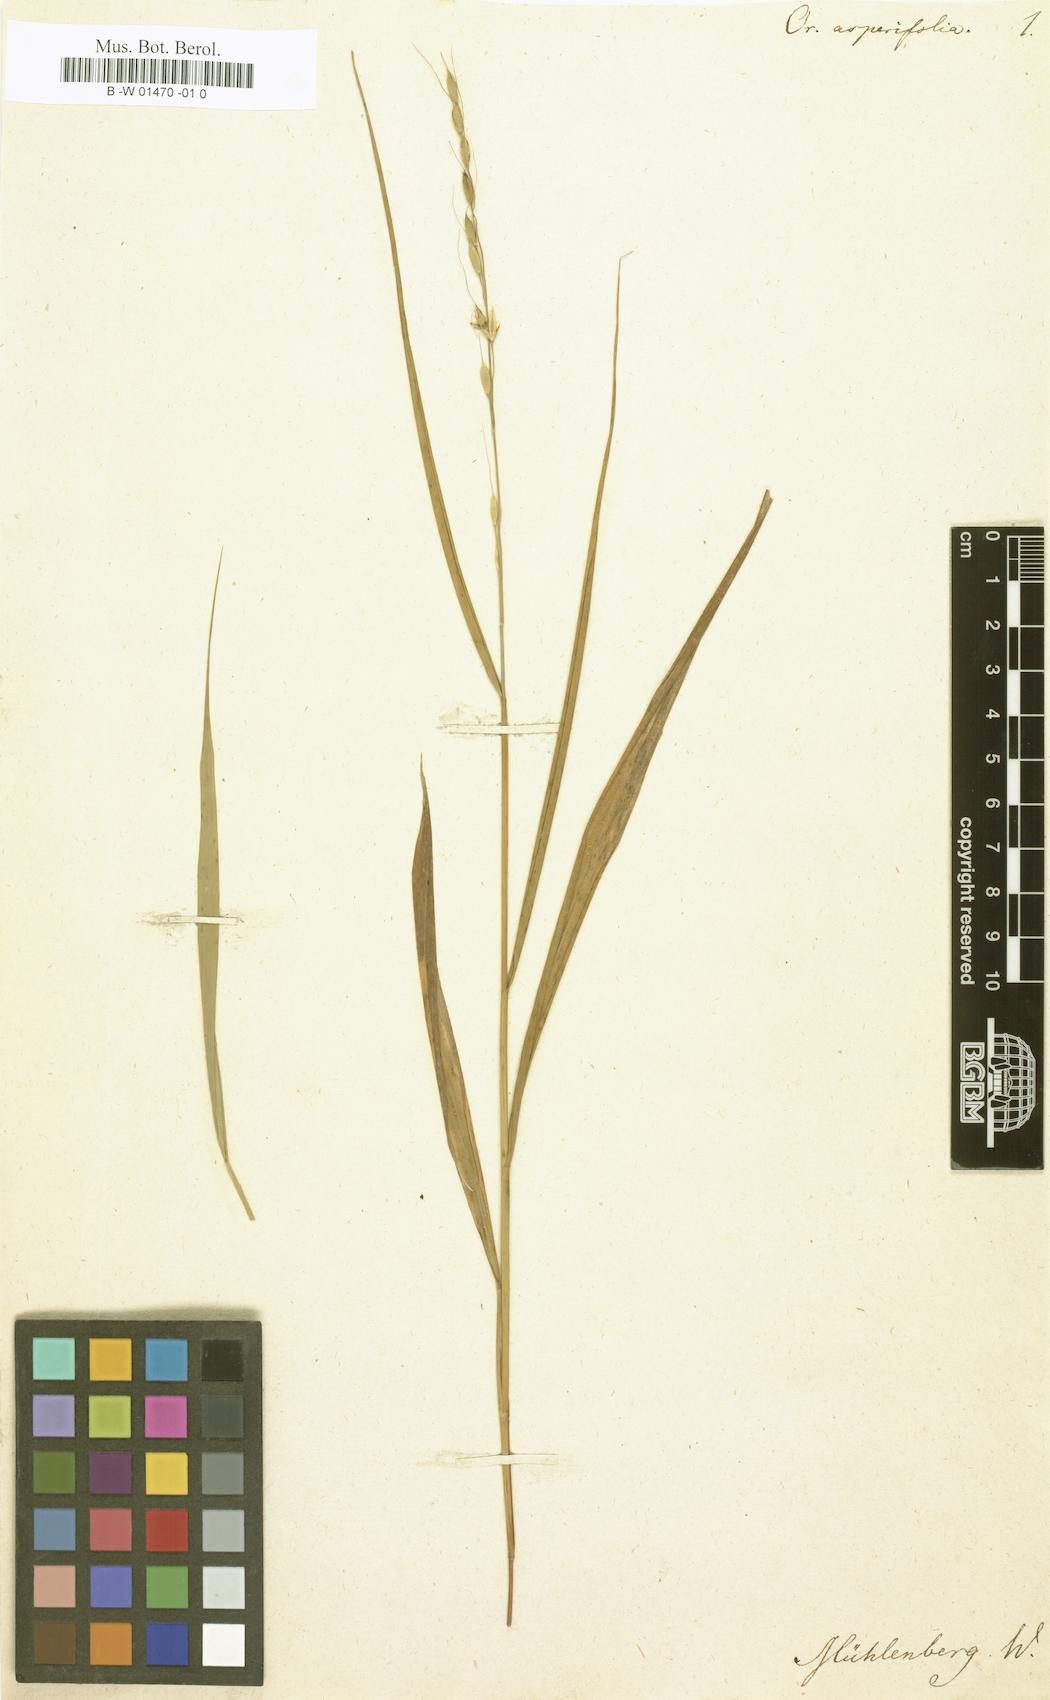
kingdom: Plantae
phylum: Tracheophyta
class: Liliopsida
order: Poales
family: Poaceae
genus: Oryzopsis
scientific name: Oryzopsis asperifolia
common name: Rough-leaved mountain rice
